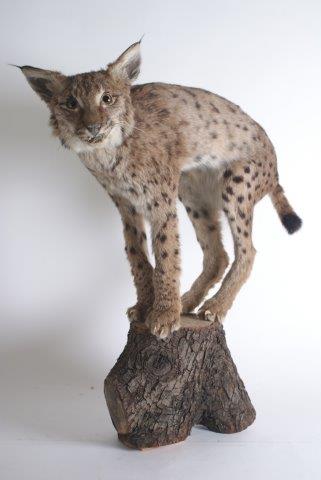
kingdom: Animalia
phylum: Chordata
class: Mammalia
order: Carnivora
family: Felidae
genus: Lynx
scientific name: Lynx canadensis
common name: Canadian Lynx
